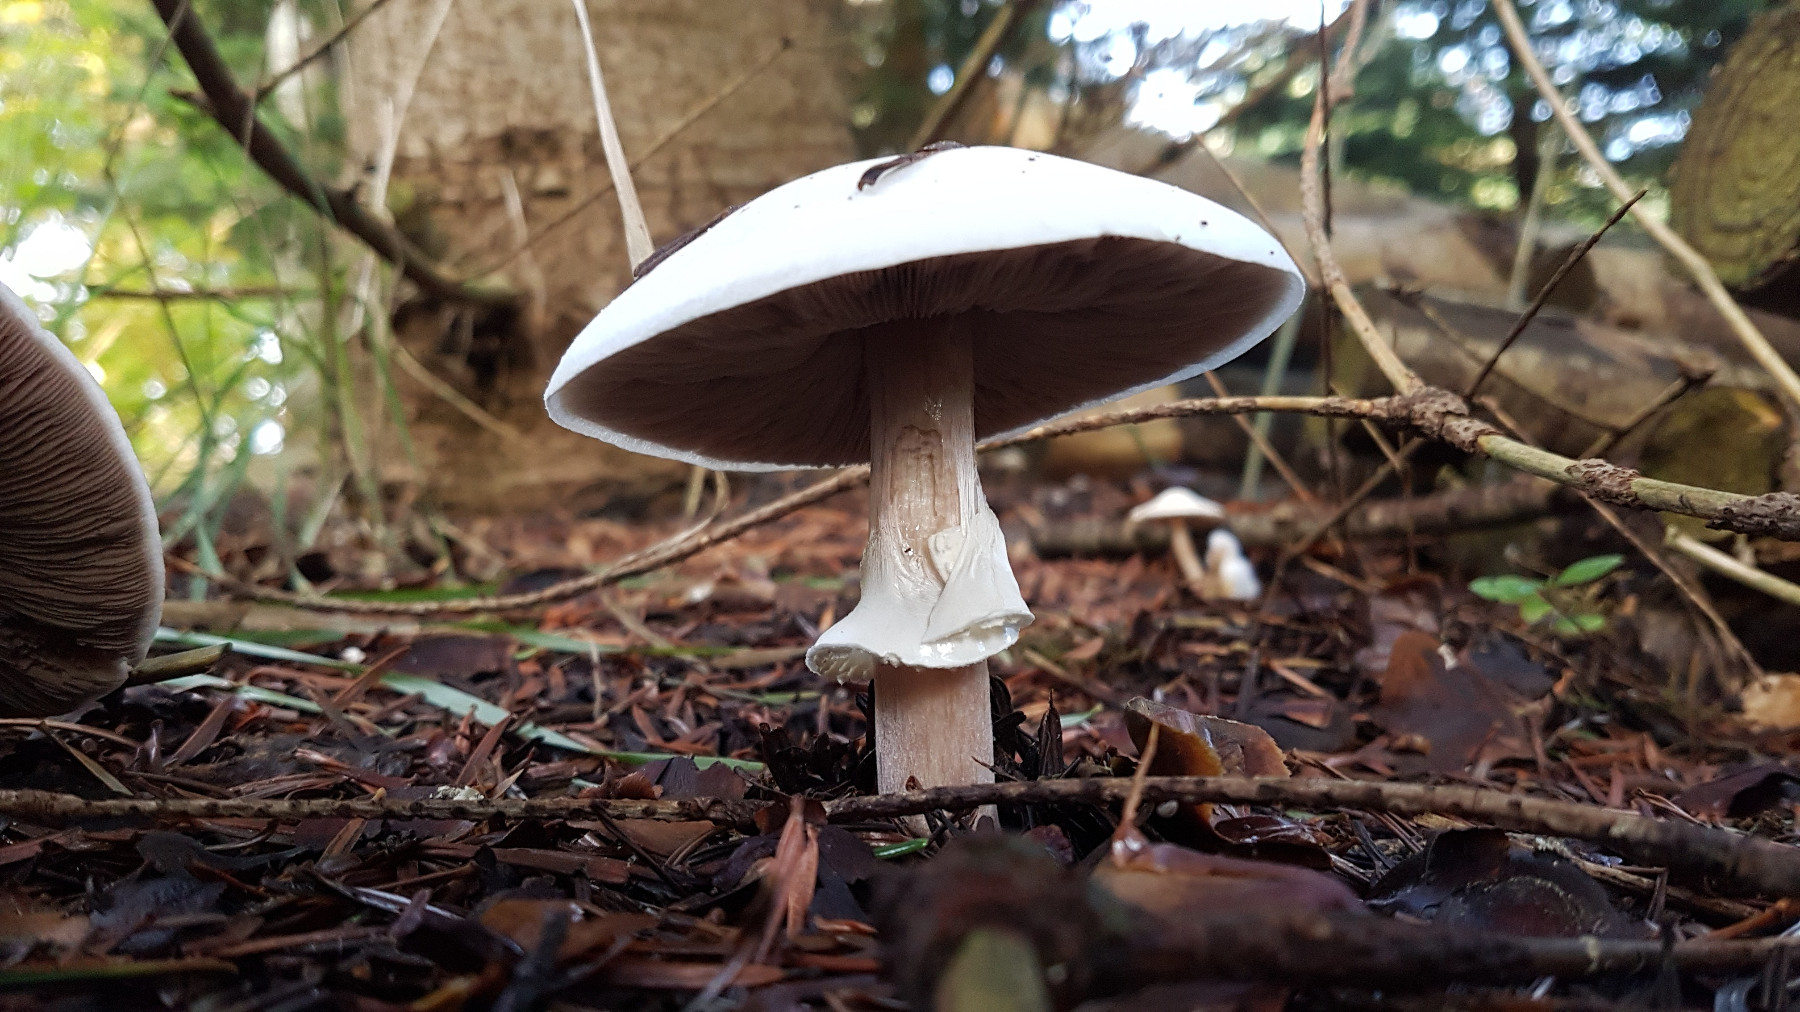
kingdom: Fungi
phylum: Basidiomycota
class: Agaricomycetes
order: Agaricales
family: Agaricaceae
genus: Agaricus
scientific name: Agaricus sylvicola
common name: gulhvid champignon
